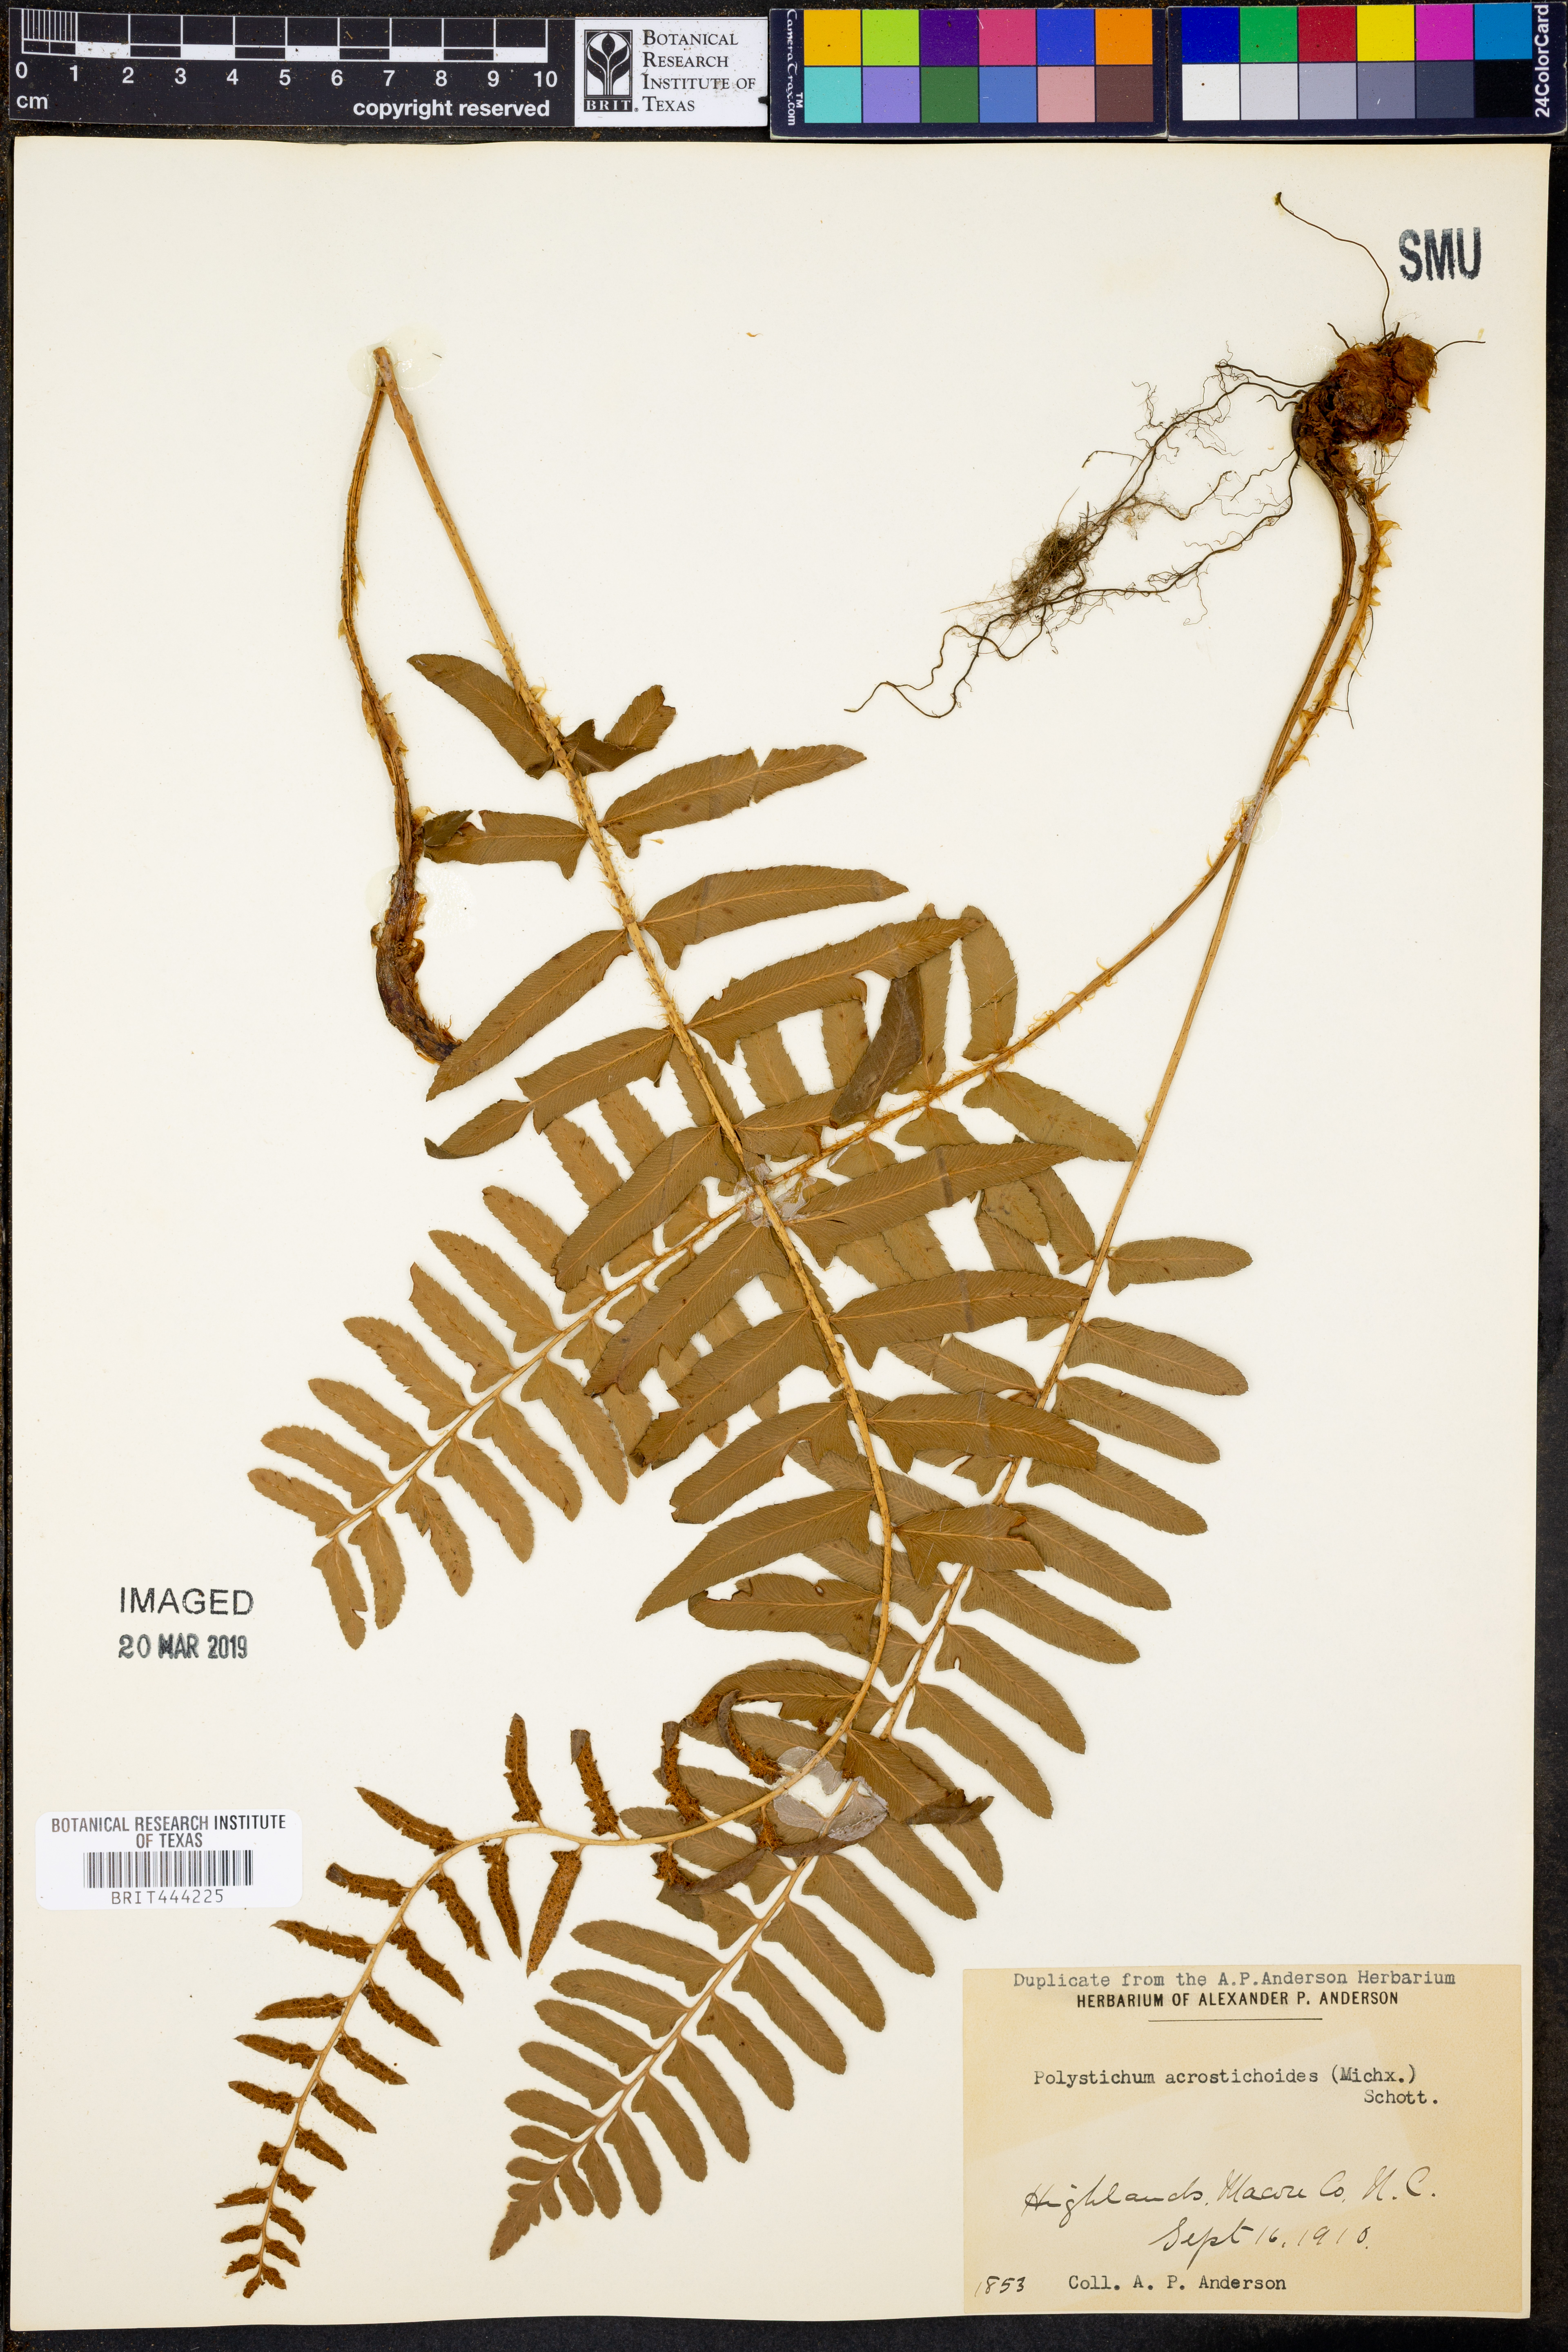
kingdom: Plantae
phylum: Tracheophyta
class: Polypodiopsida
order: Polypodiales
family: Dryopteridaceae
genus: Polystichum
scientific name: Polystichum acrostichoides
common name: Christmas fern
